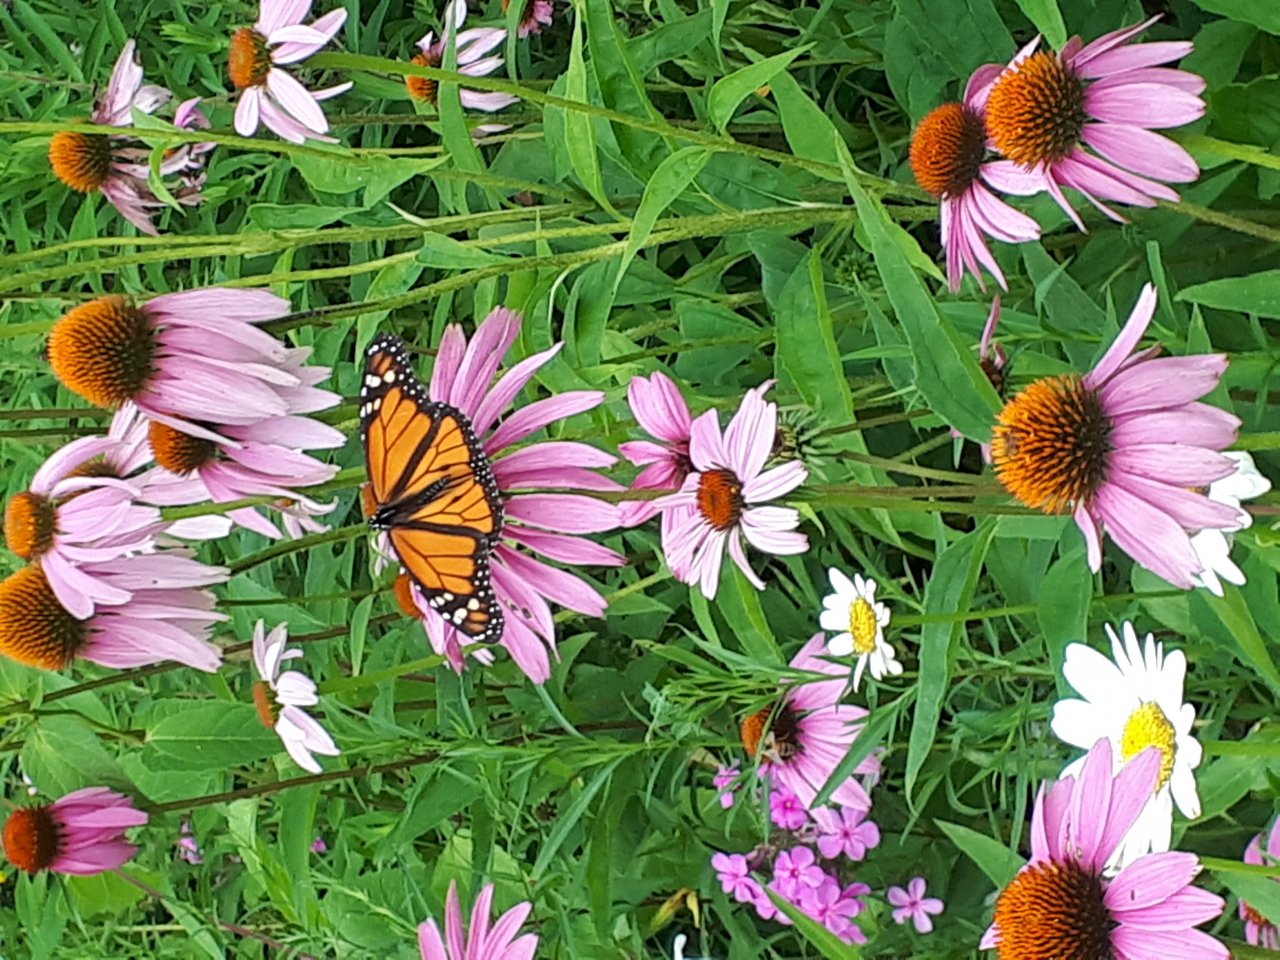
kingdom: Animalia
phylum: Arthropoda
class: Insecta
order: Lepidoptera
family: Nymphalidae
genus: Danaus
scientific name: Danaus plexippus
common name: Monarch
